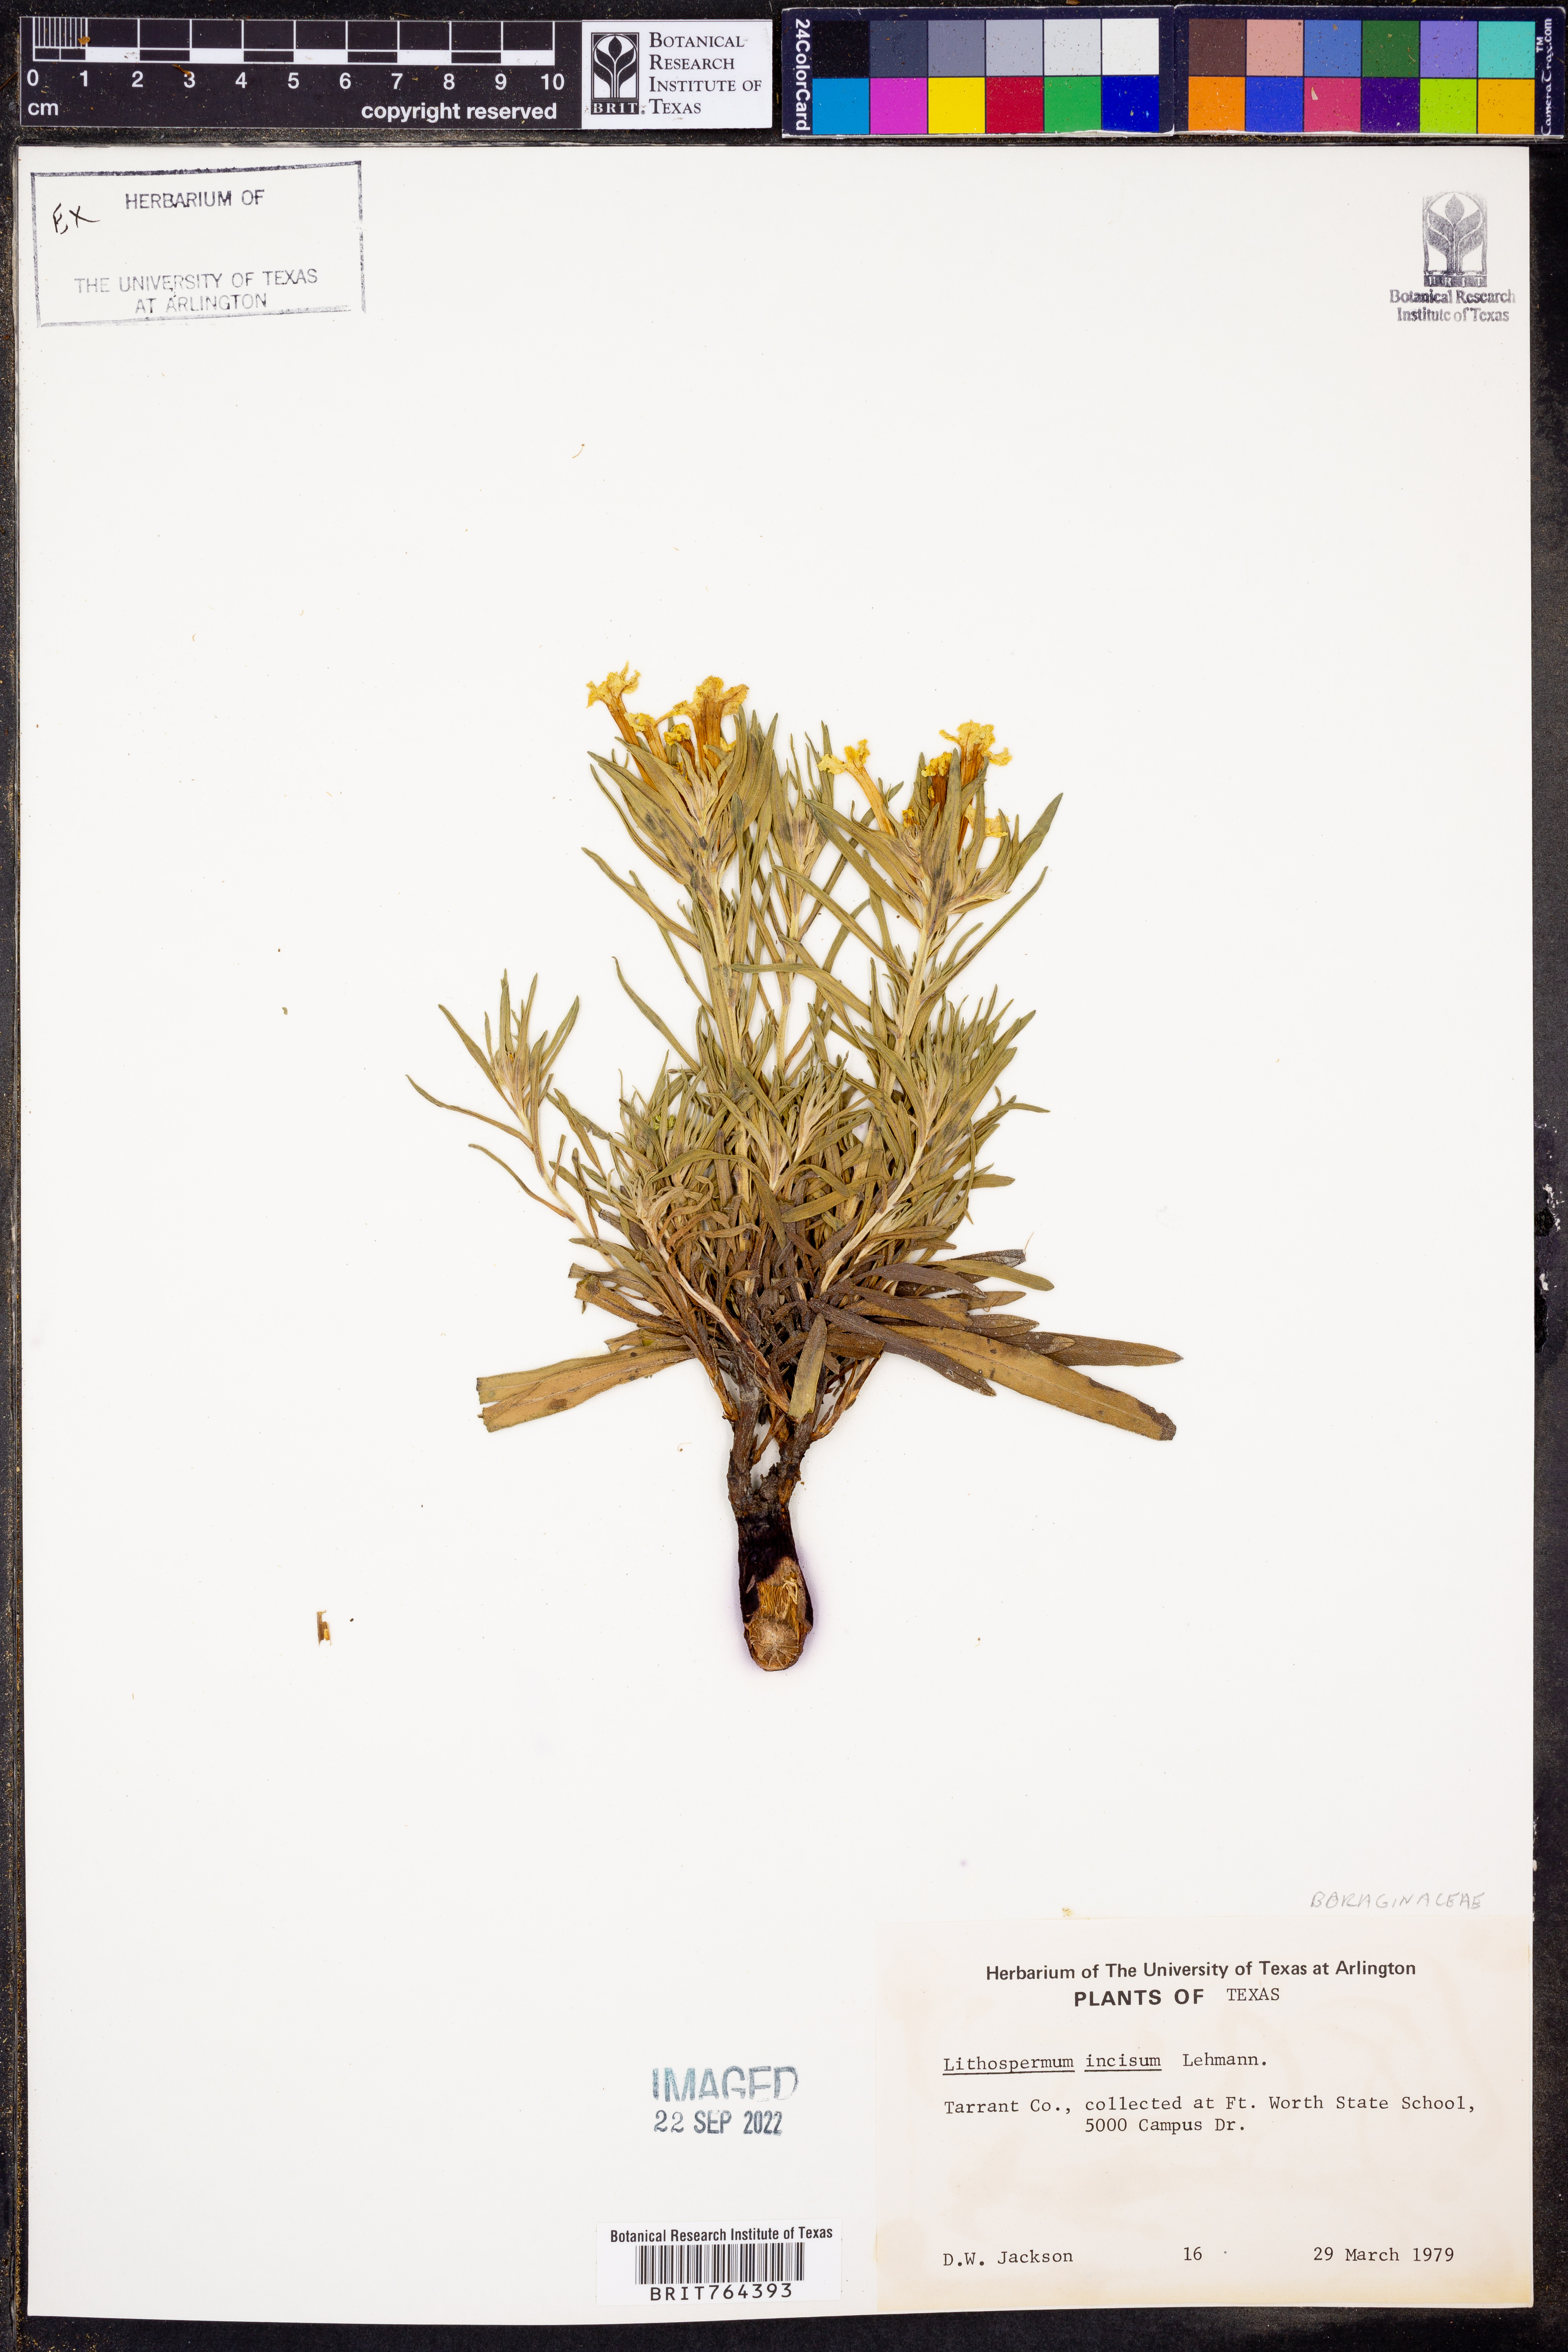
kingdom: Plantae
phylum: Tracheophyta
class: Magnoliopsida
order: Boraginales
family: Boraginaceae
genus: Lithospermum
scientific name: Lithospermum incisum
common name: Fringed gromwell
